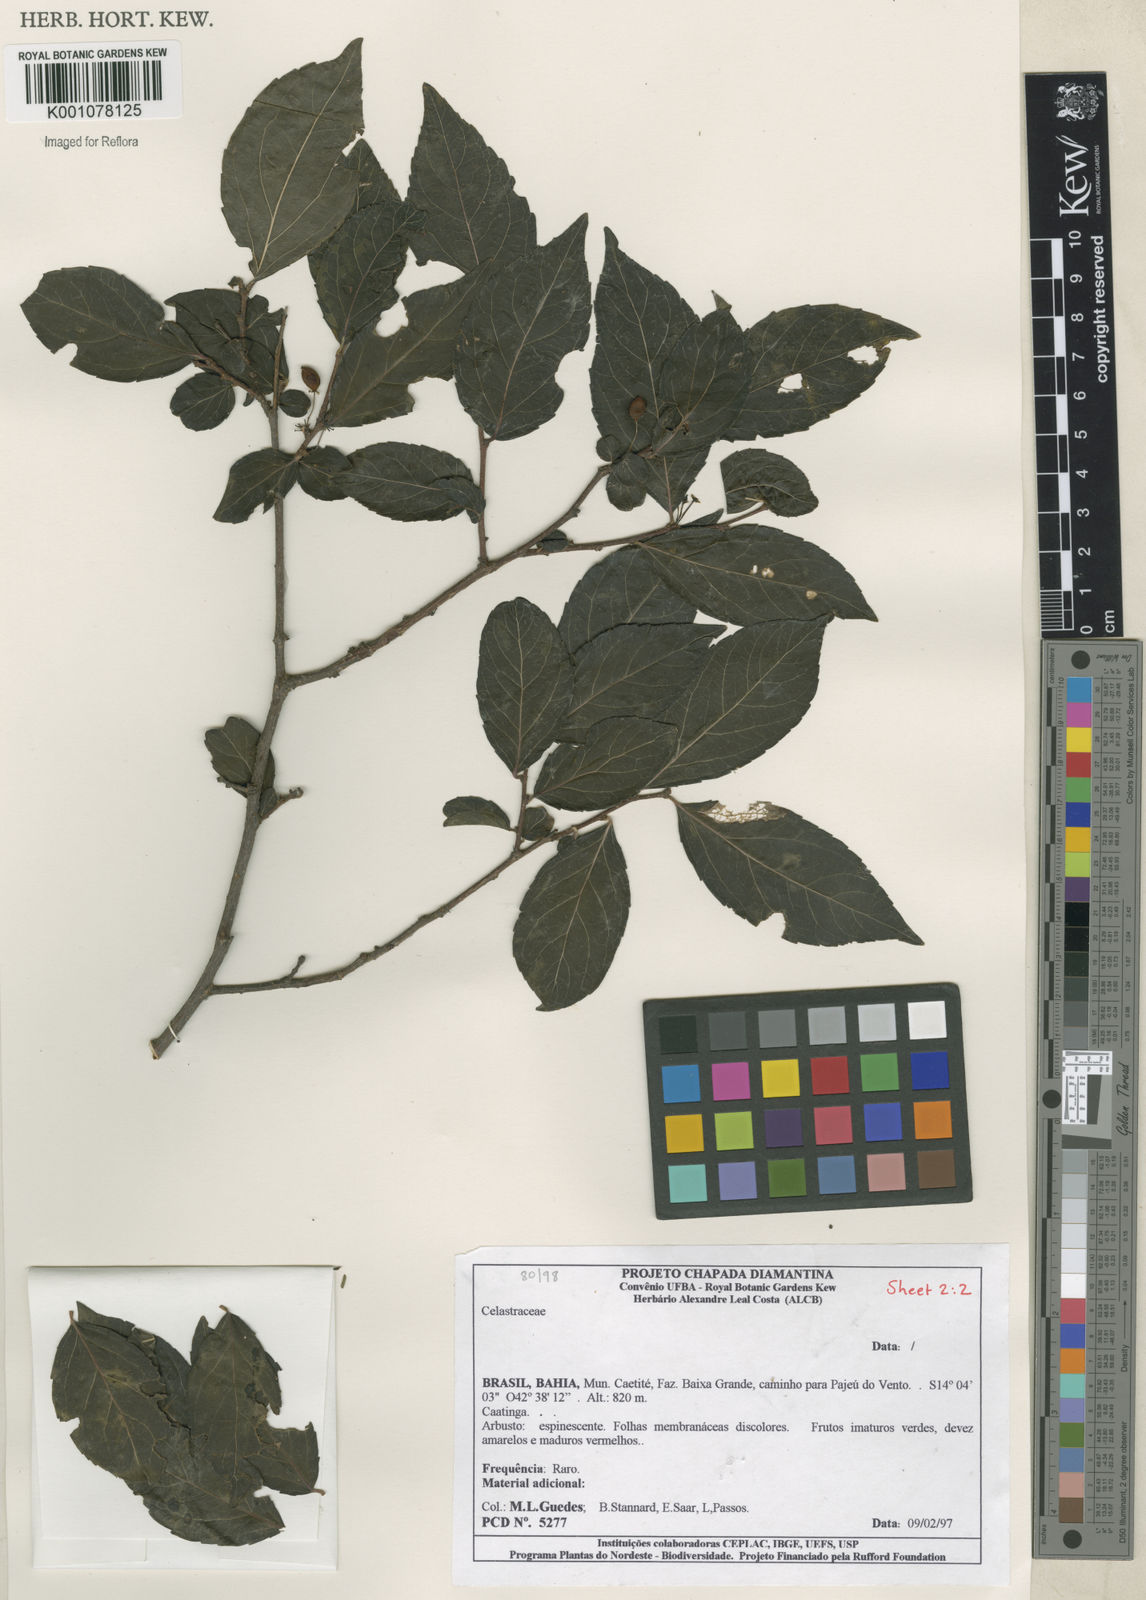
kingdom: Plantae
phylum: Tracheophyta
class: Magnoliopsida
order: Malpighiales
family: Salicaceae
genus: Xylosma
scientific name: Xylosma
